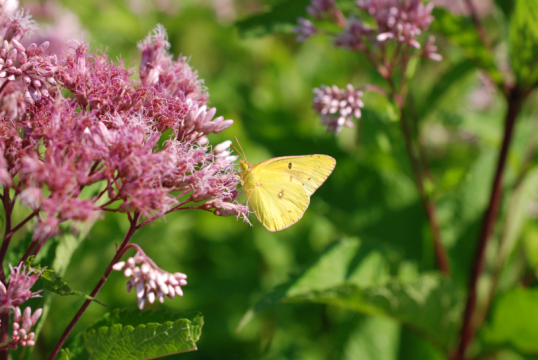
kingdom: Animalia
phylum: Arthropoda
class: Insecta
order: Lepidoptera
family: Pieridae
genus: Colias
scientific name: Colias philodice
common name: Clouded Sulphur
